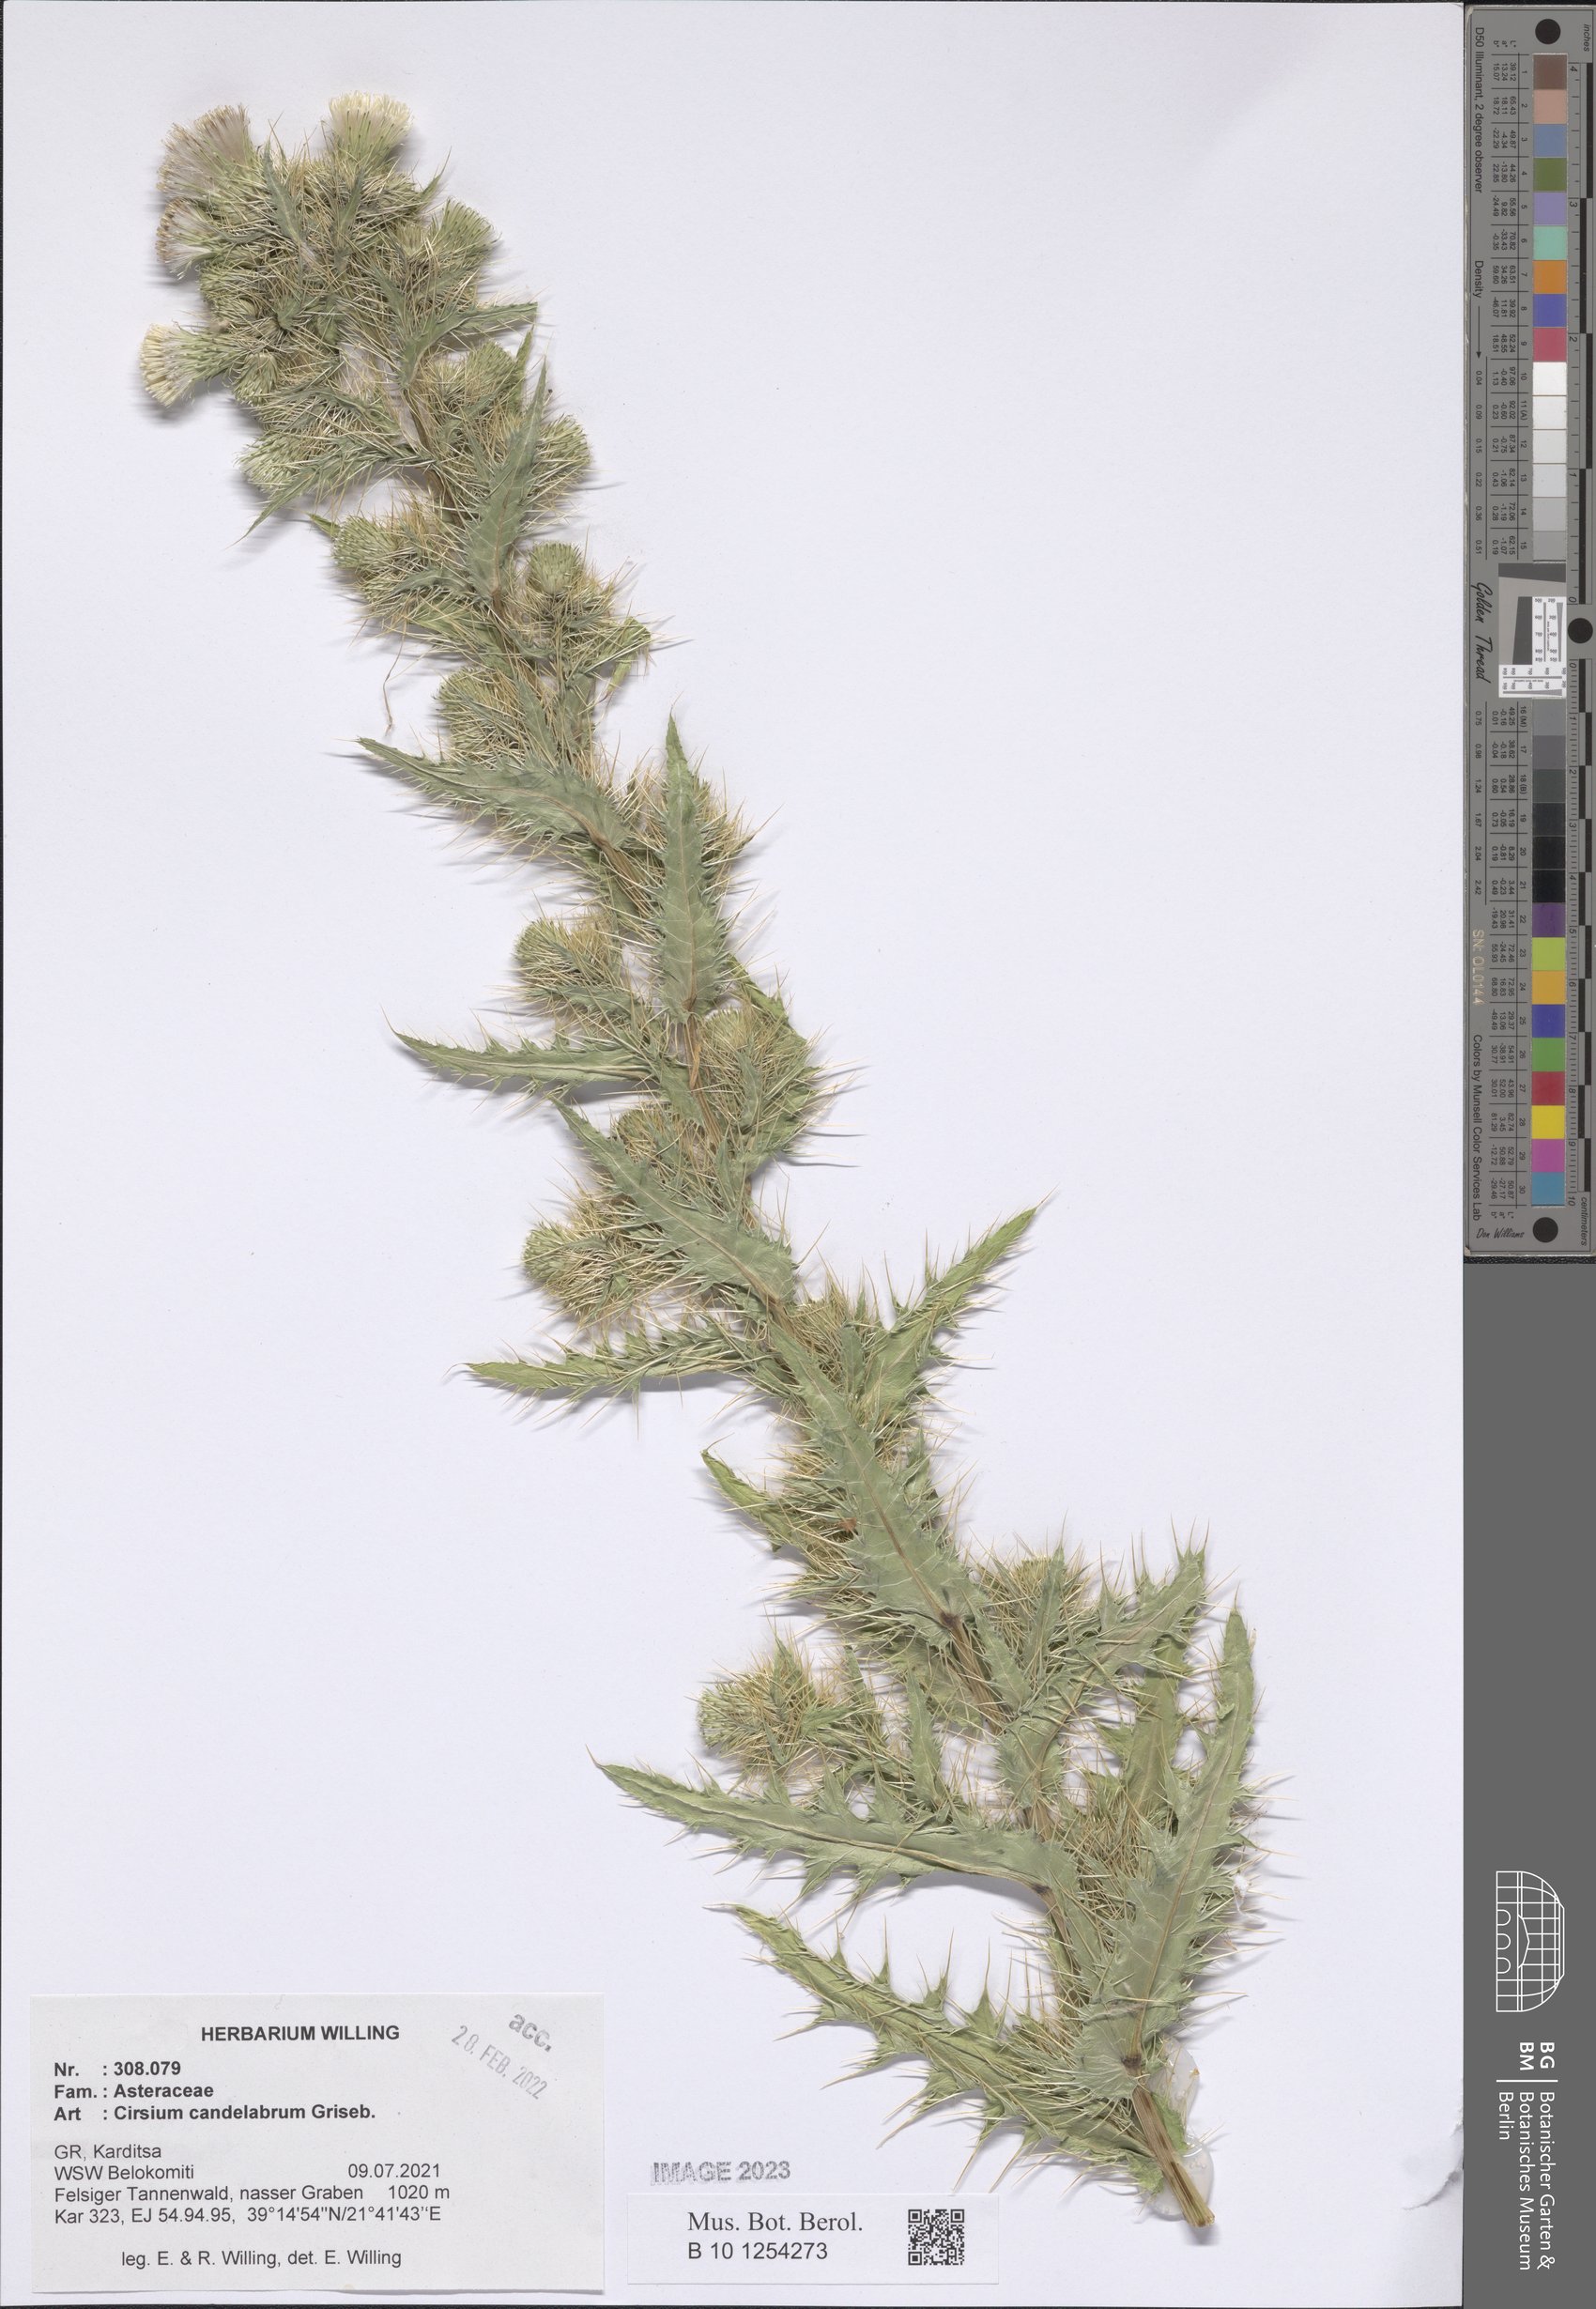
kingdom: Plantae
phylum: Tracheophyta
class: Magnoliopsida
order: Asterales
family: Asteraceae
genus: Cirsium
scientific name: Cirsium candelabrum
